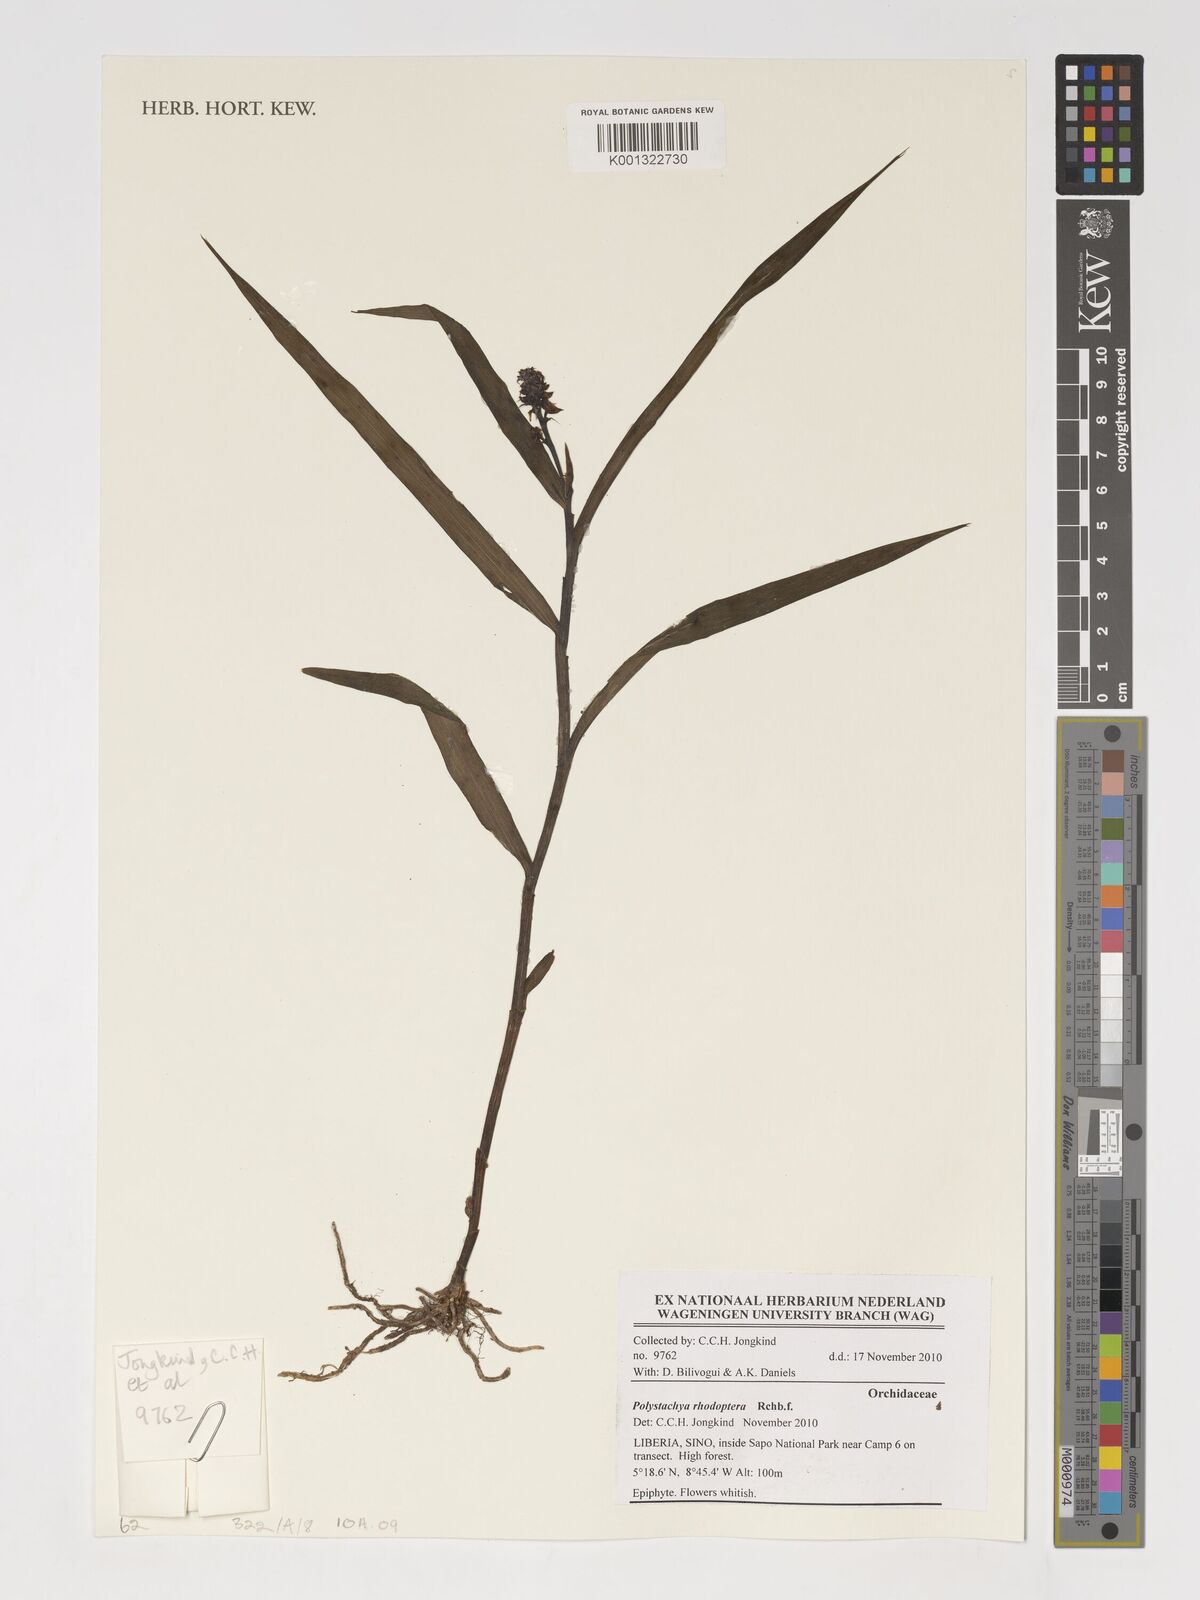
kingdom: Plantae
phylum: Tracheophyta
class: Liliopsida
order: Asparagales
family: Orchidaceae
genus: Polystachya
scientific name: Polystachya rhodoptera
